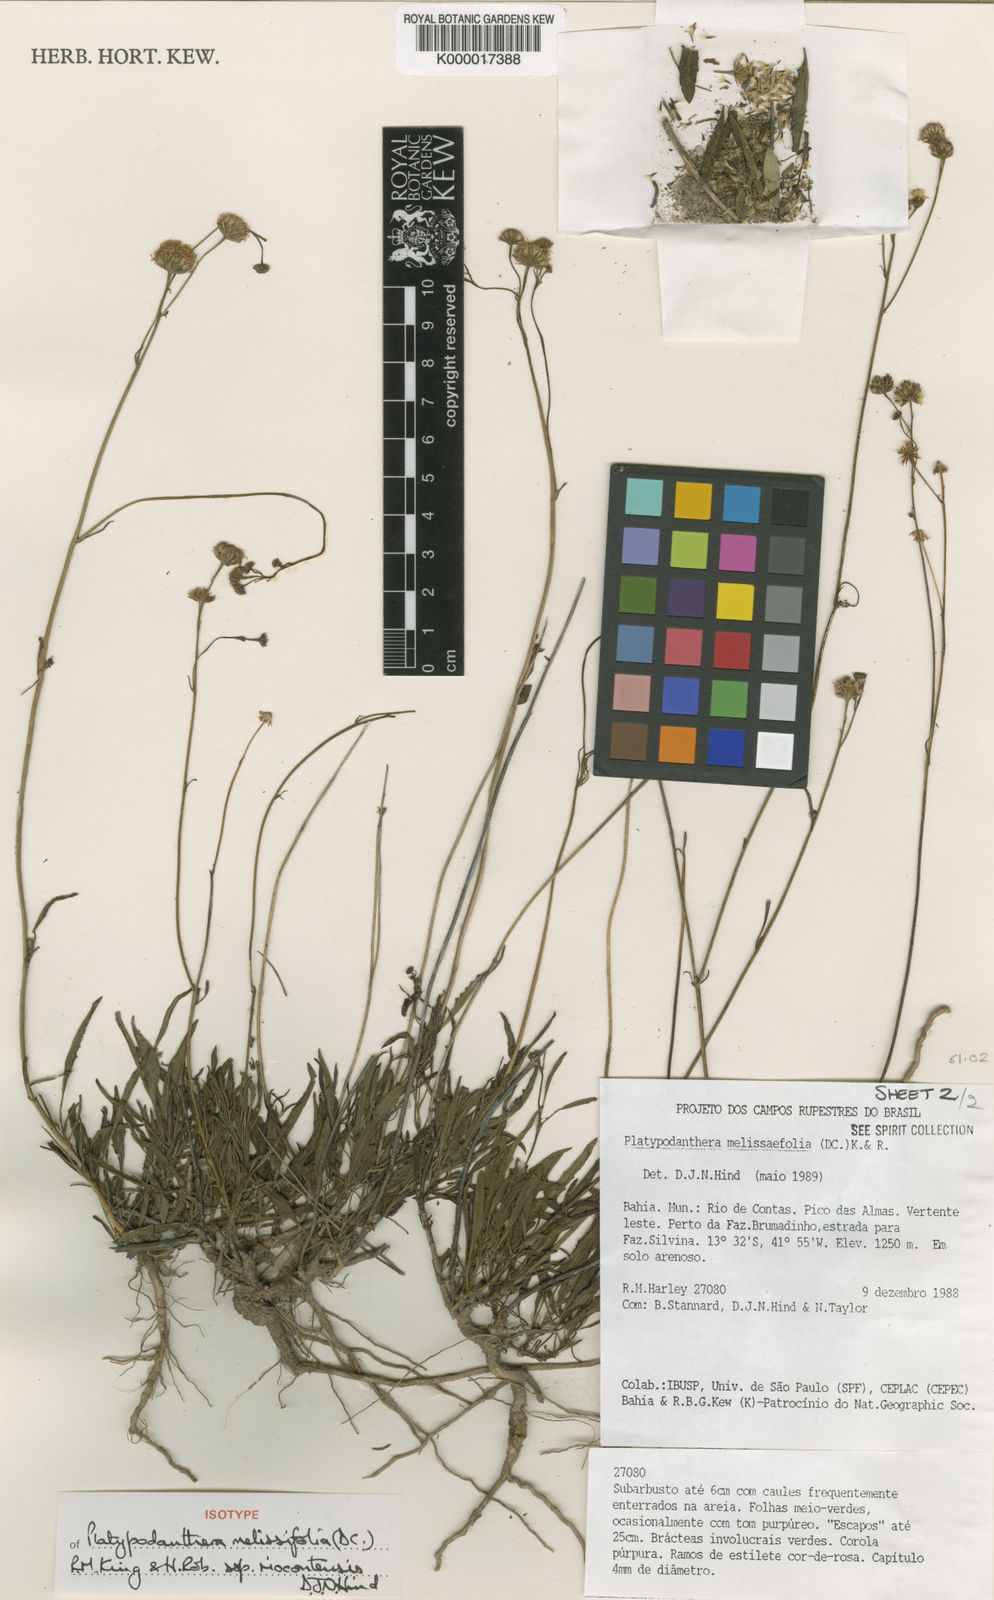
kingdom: Plantae
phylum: Tracheophyta
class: Magnoliopsida
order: Asterales
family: Asteraceae
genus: Platypodanthera
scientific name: Platypodanthera melissifolia
